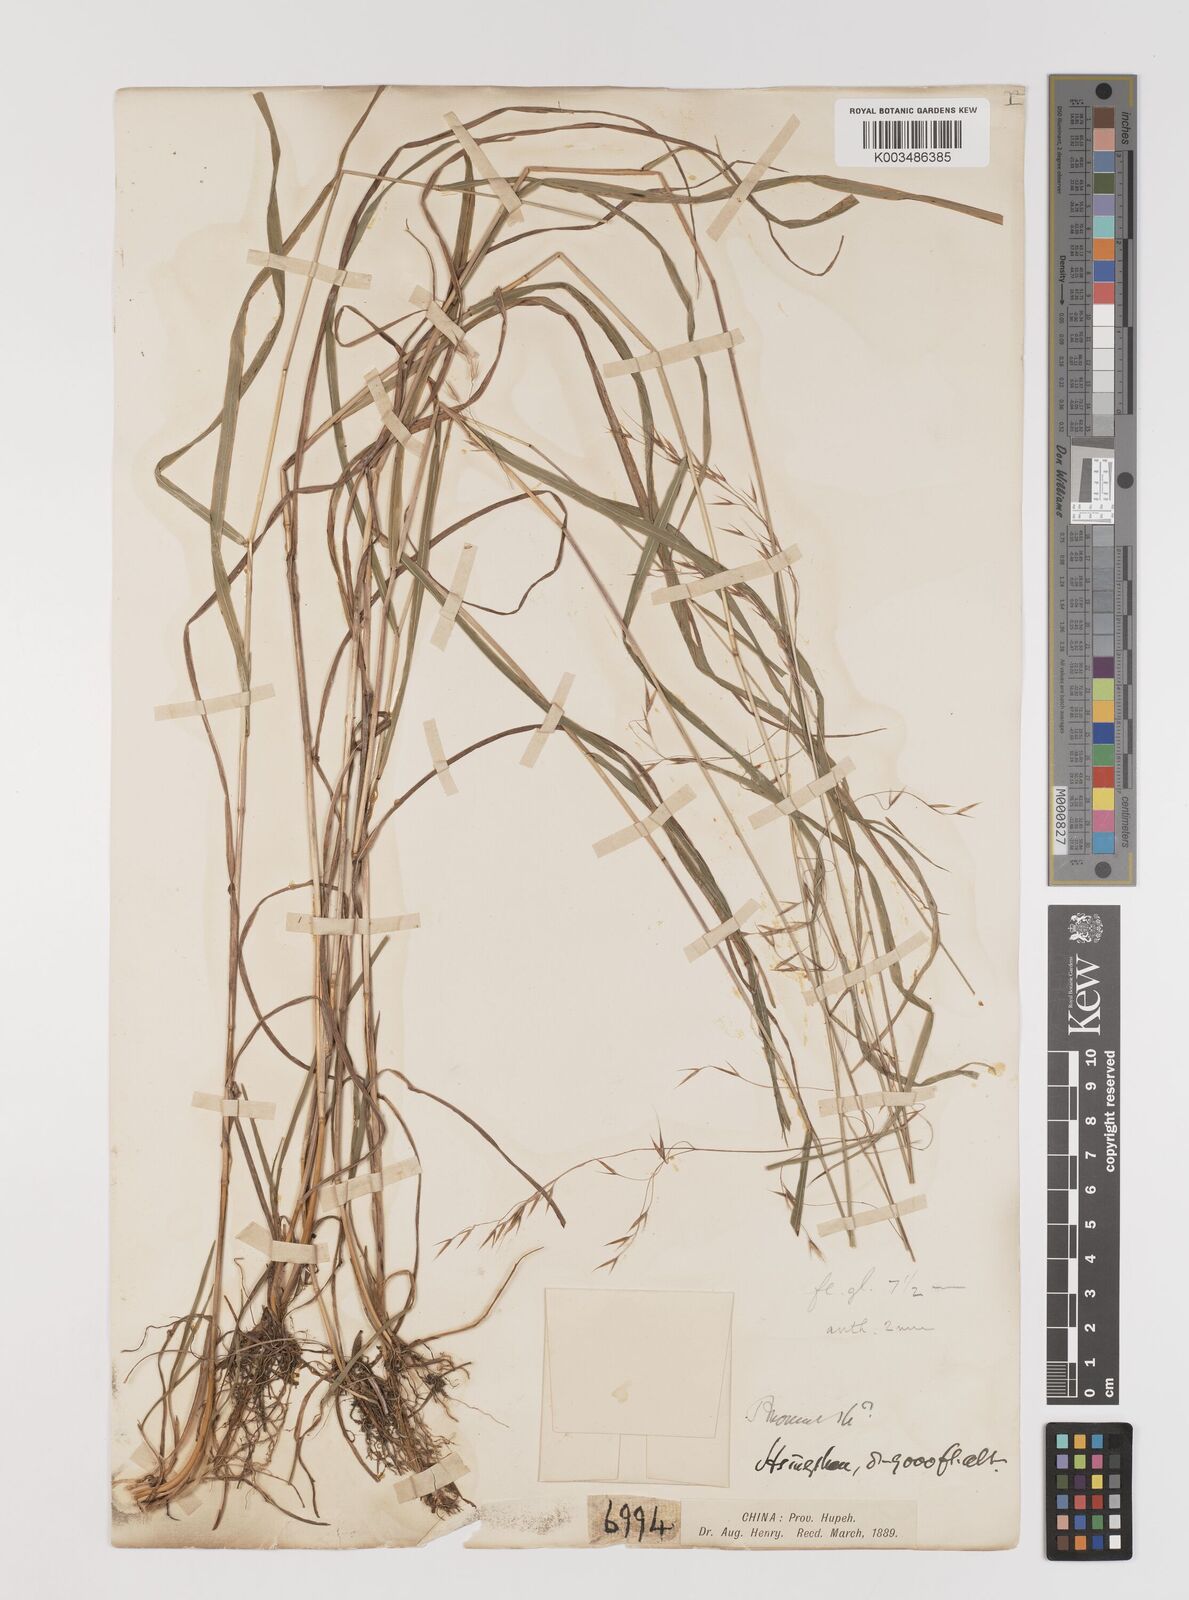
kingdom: Plantae
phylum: Tracheophyta
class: Liliopsida
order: Poales
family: Poaceae
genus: Bromus
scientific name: Bromus
